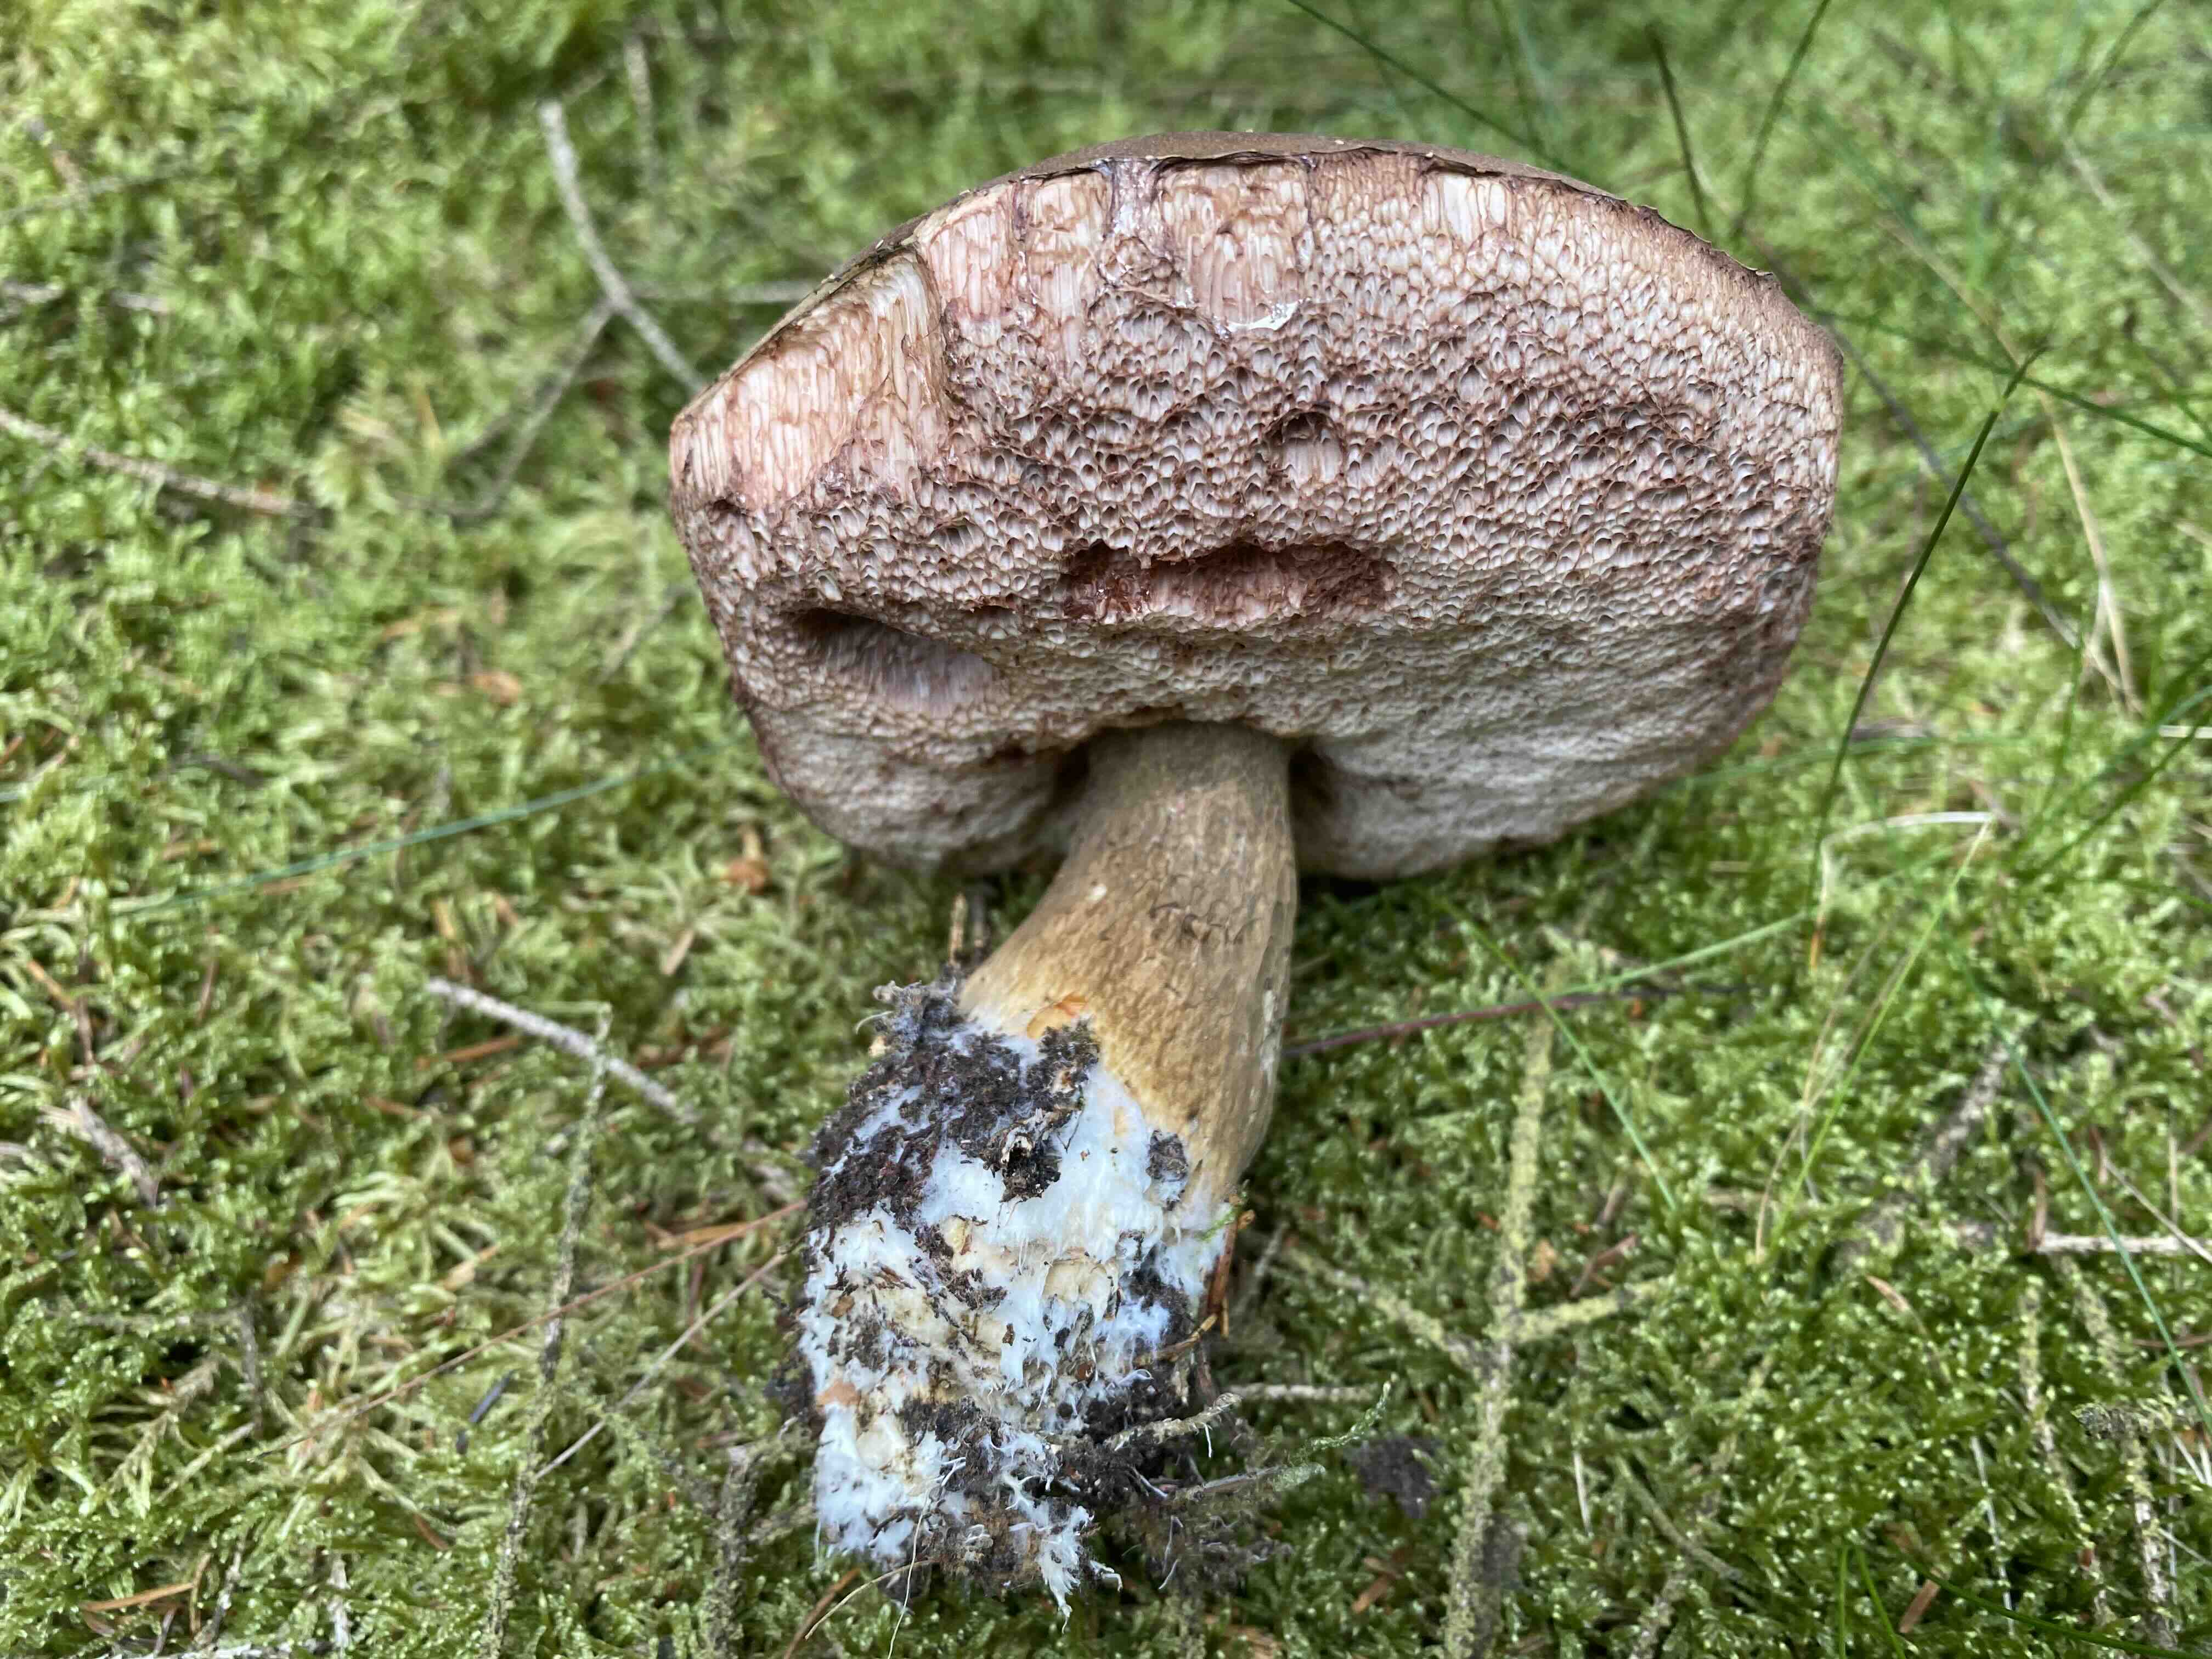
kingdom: Fungi
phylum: Basidiomycota
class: Agaricomycetes
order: Boletales
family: Boletaceae
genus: Tylopilus
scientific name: Tylopilus felleus
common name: galderørhat
